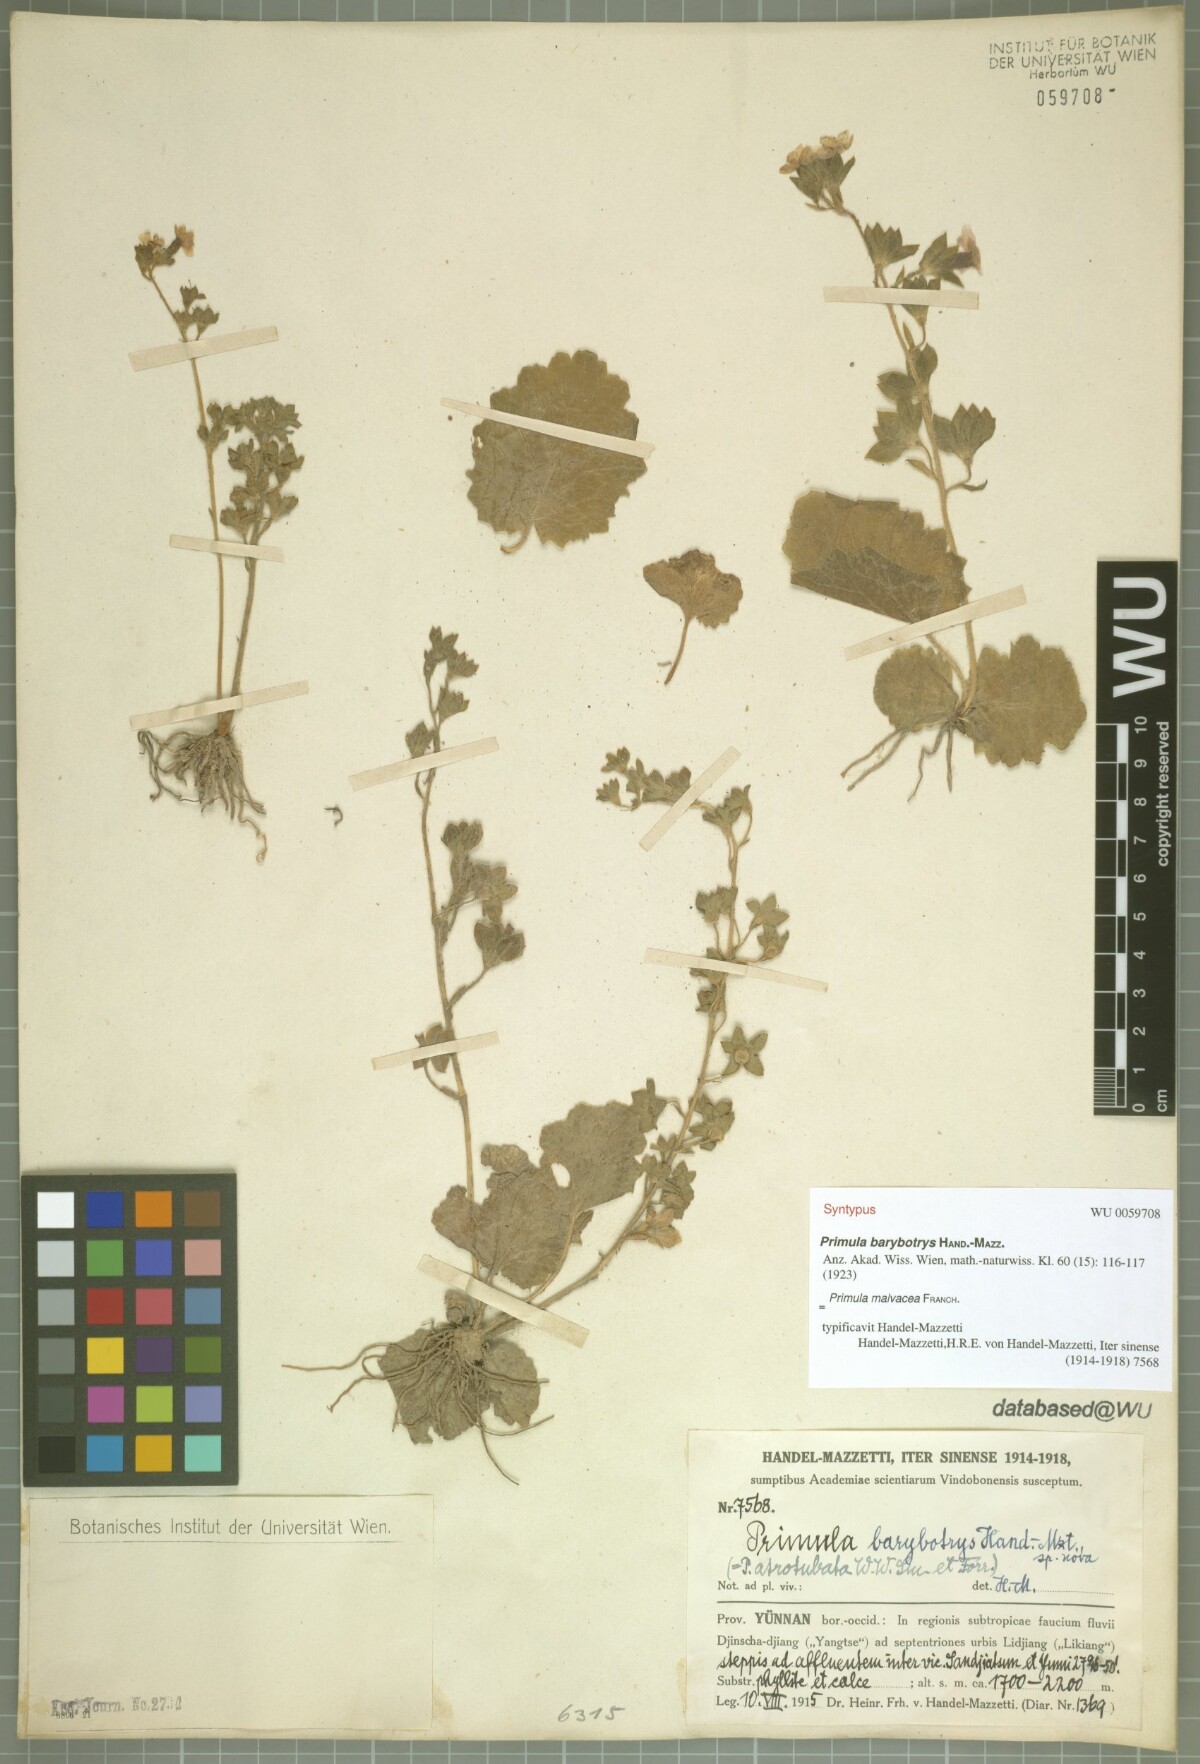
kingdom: Plantae
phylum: Tracheophyta
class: Magnoliopsida
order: Ericales
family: Primulaceae
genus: Primula
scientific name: Primula malvacea
